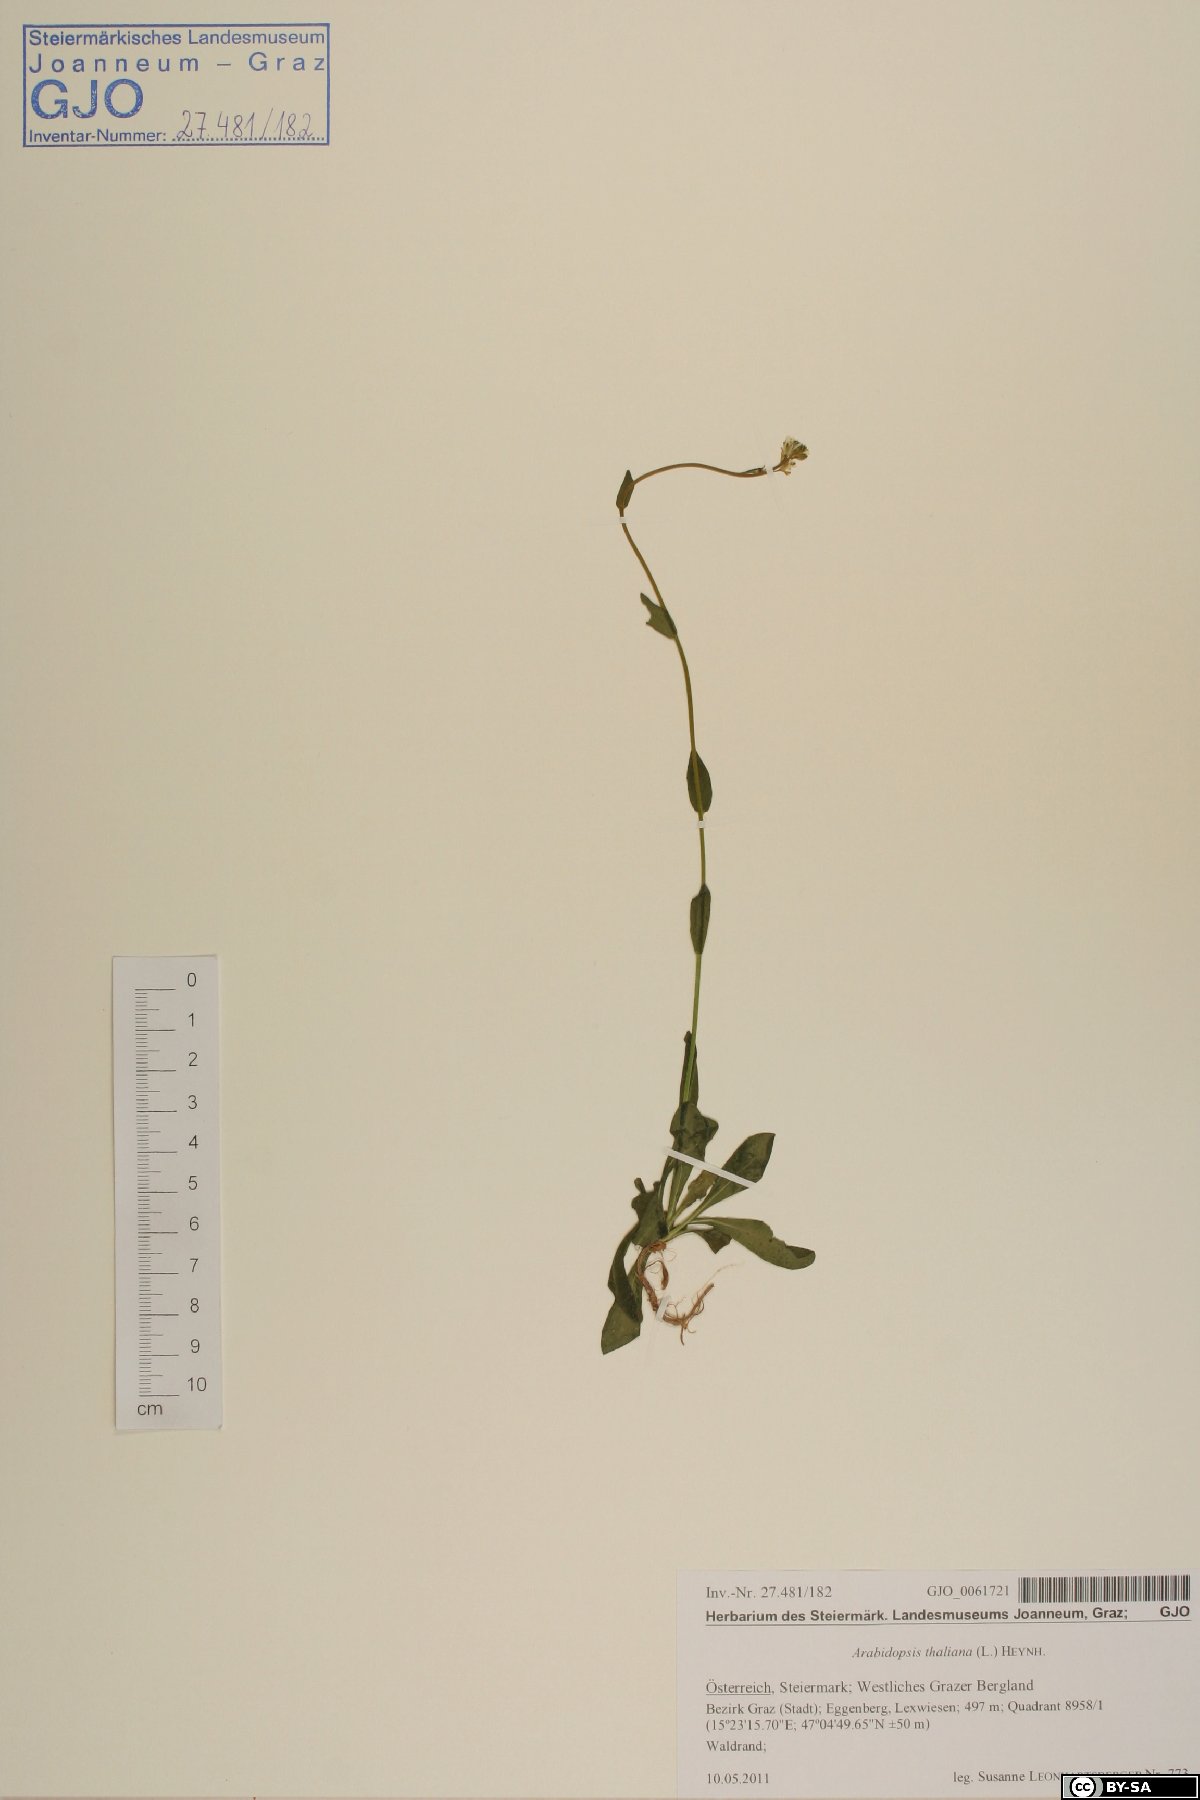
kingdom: Plantae
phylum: Tracheophyta
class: Magnoliopsida
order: Brassicales
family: Brassicaceae
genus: Arabidopsis
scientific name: Arabidopsis thaliana
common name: Thale cress
